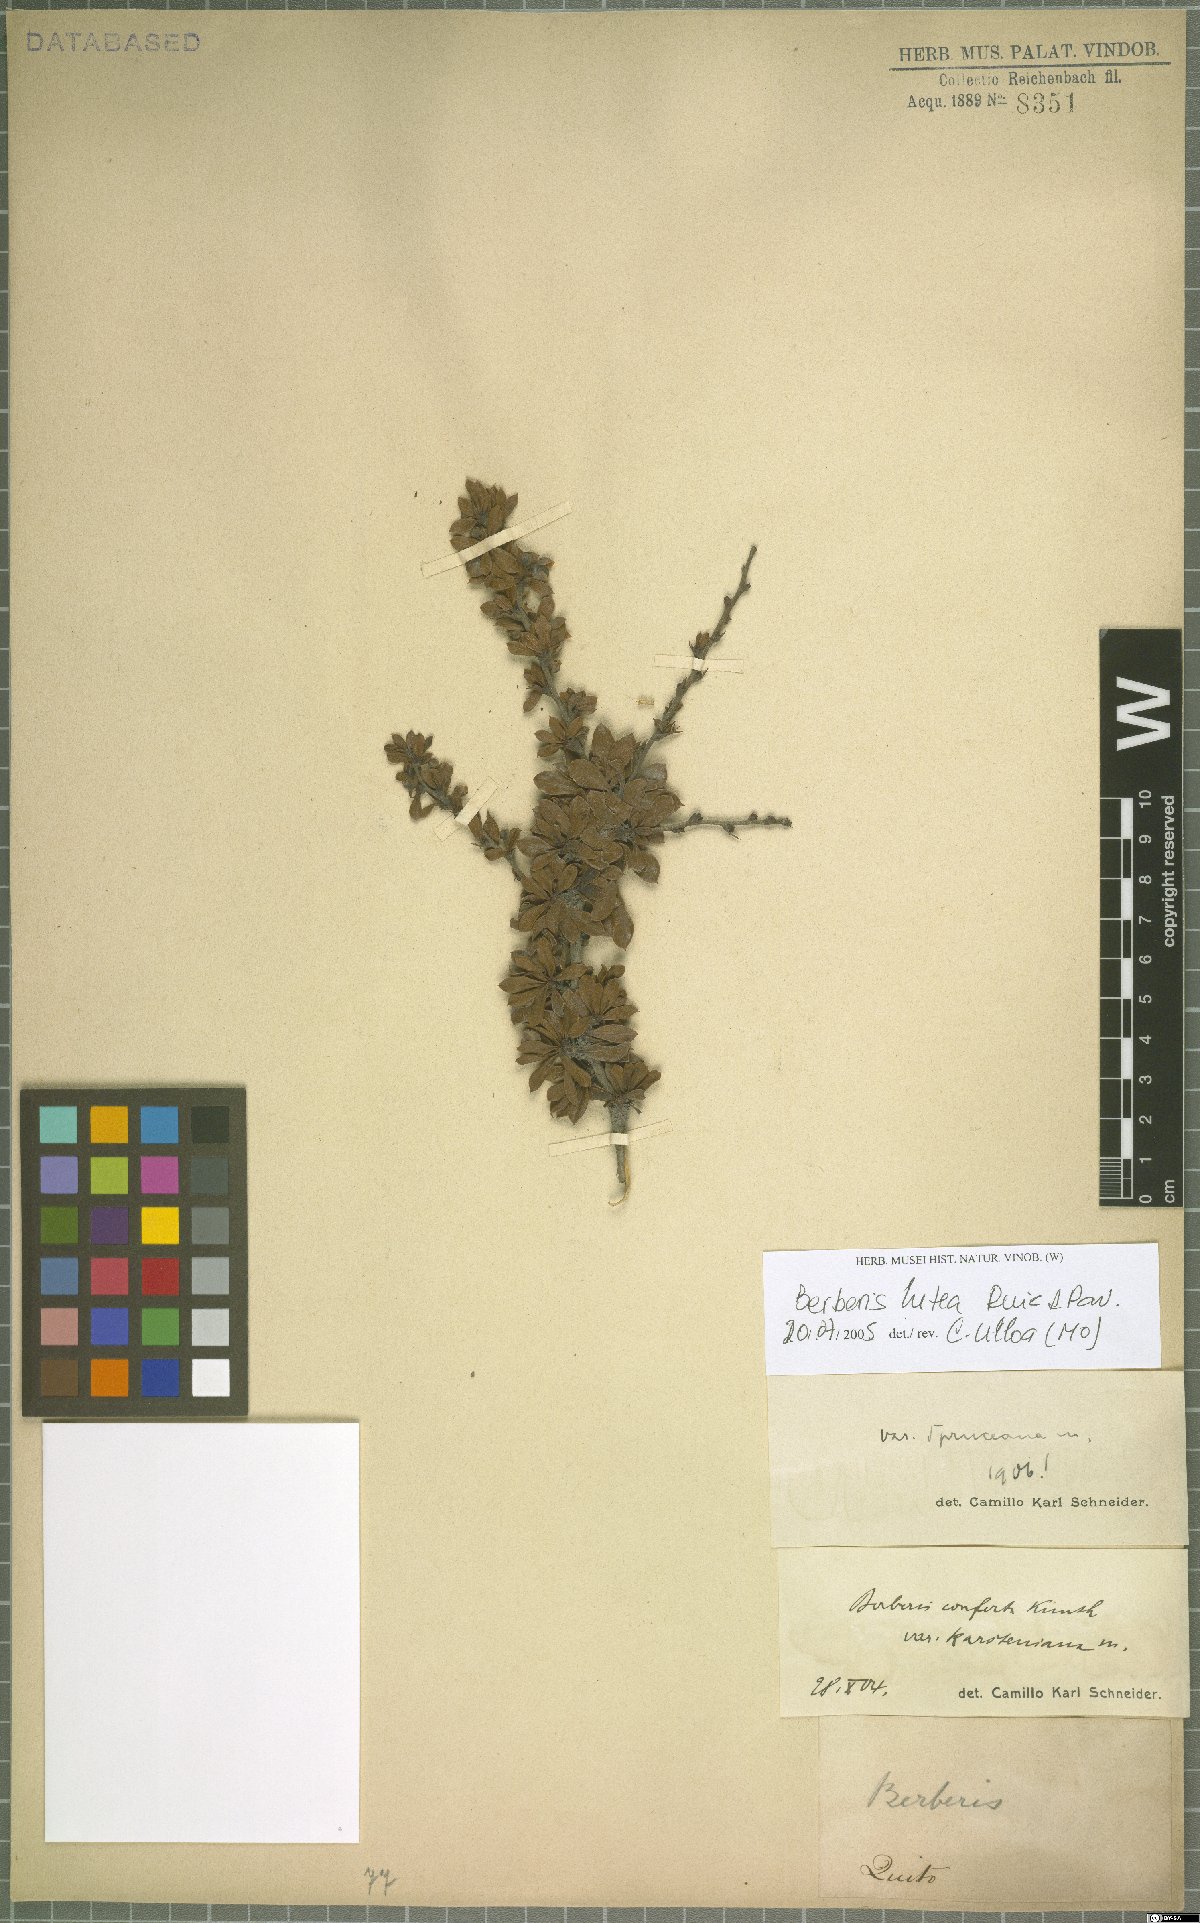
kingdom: Plantae
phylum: Tracheophyta
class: Magnoliopsida
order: Ranunculales
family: Berberidaceae
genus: Berberis
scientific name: Berberis lutea
